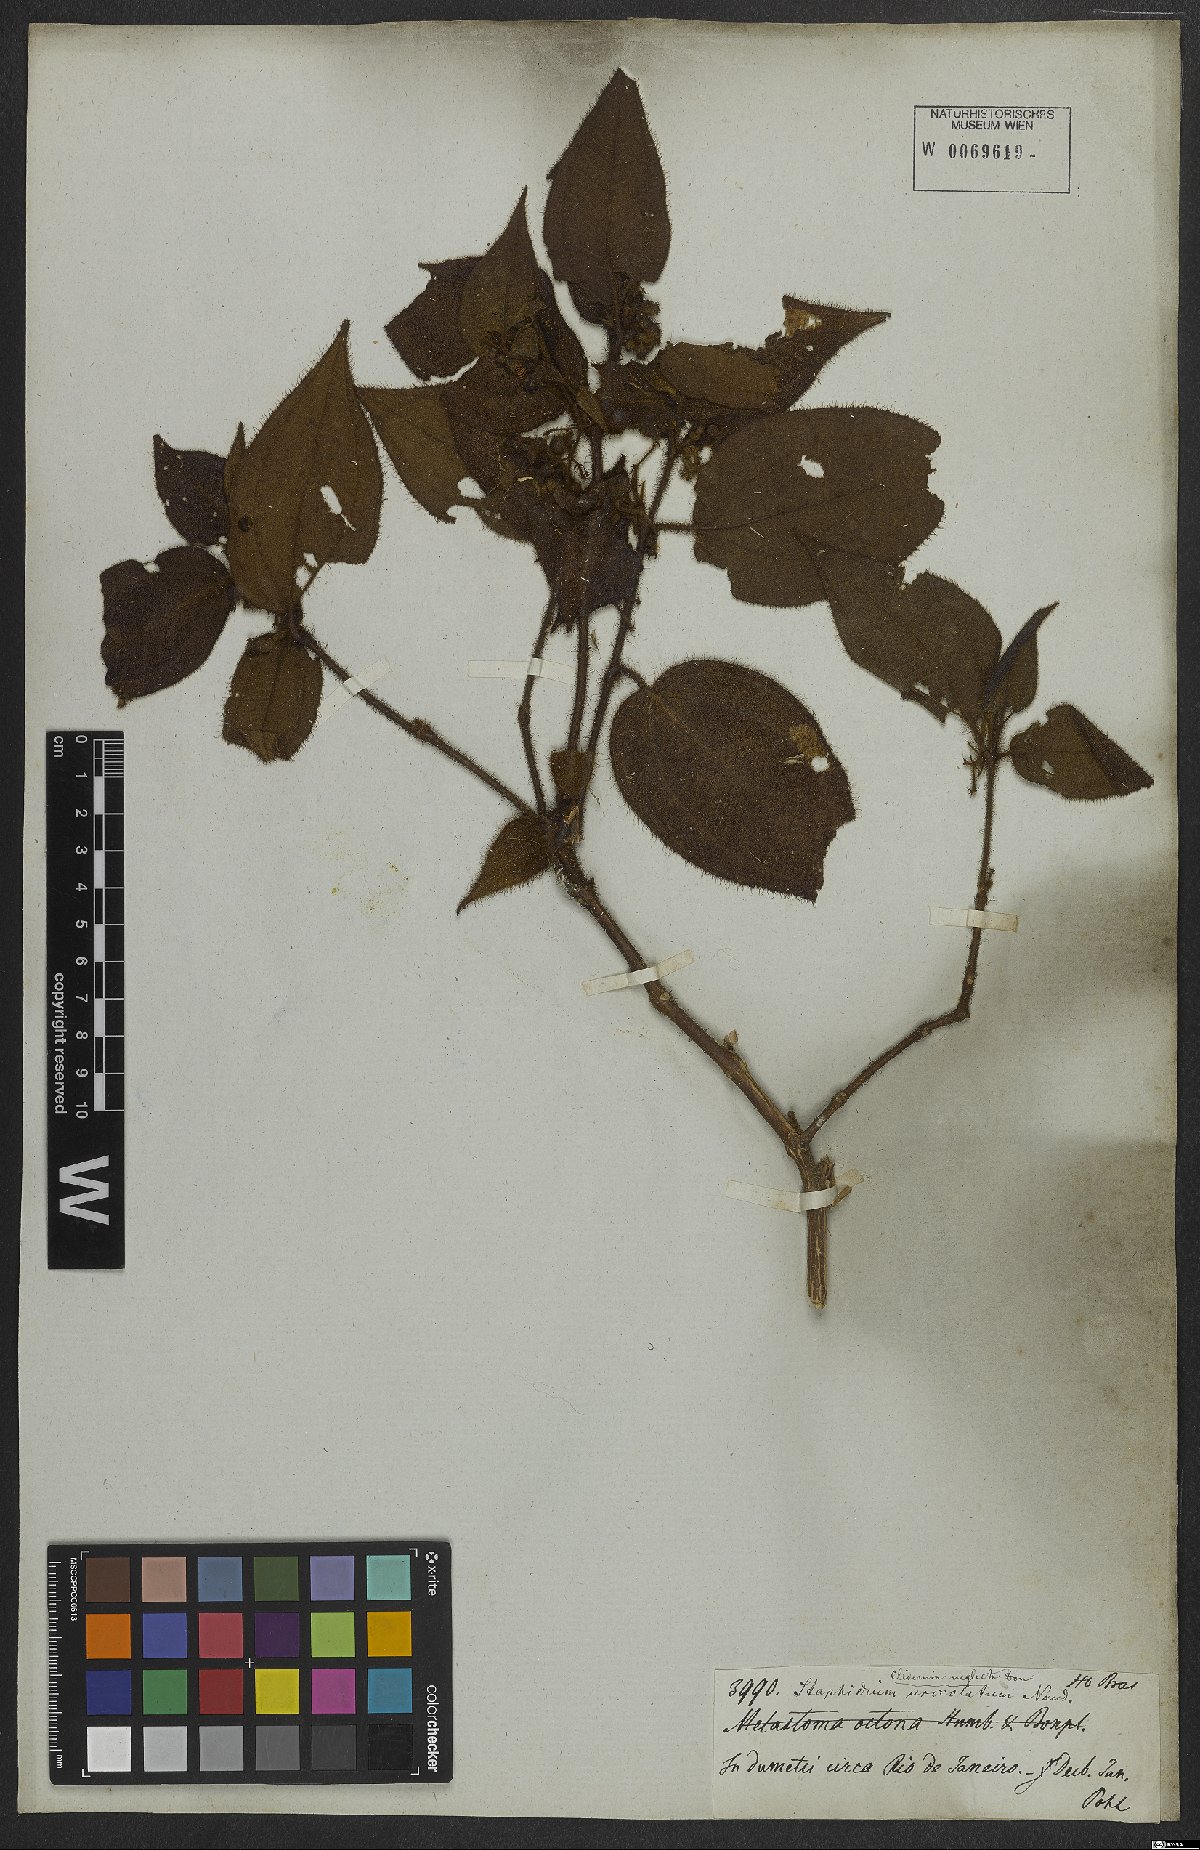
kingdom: Plantae
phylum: Tracheophyta
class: Magnoliopsida
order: Myrtales
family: Melastomataceae
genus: Miconia
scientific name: Miconia dependens
